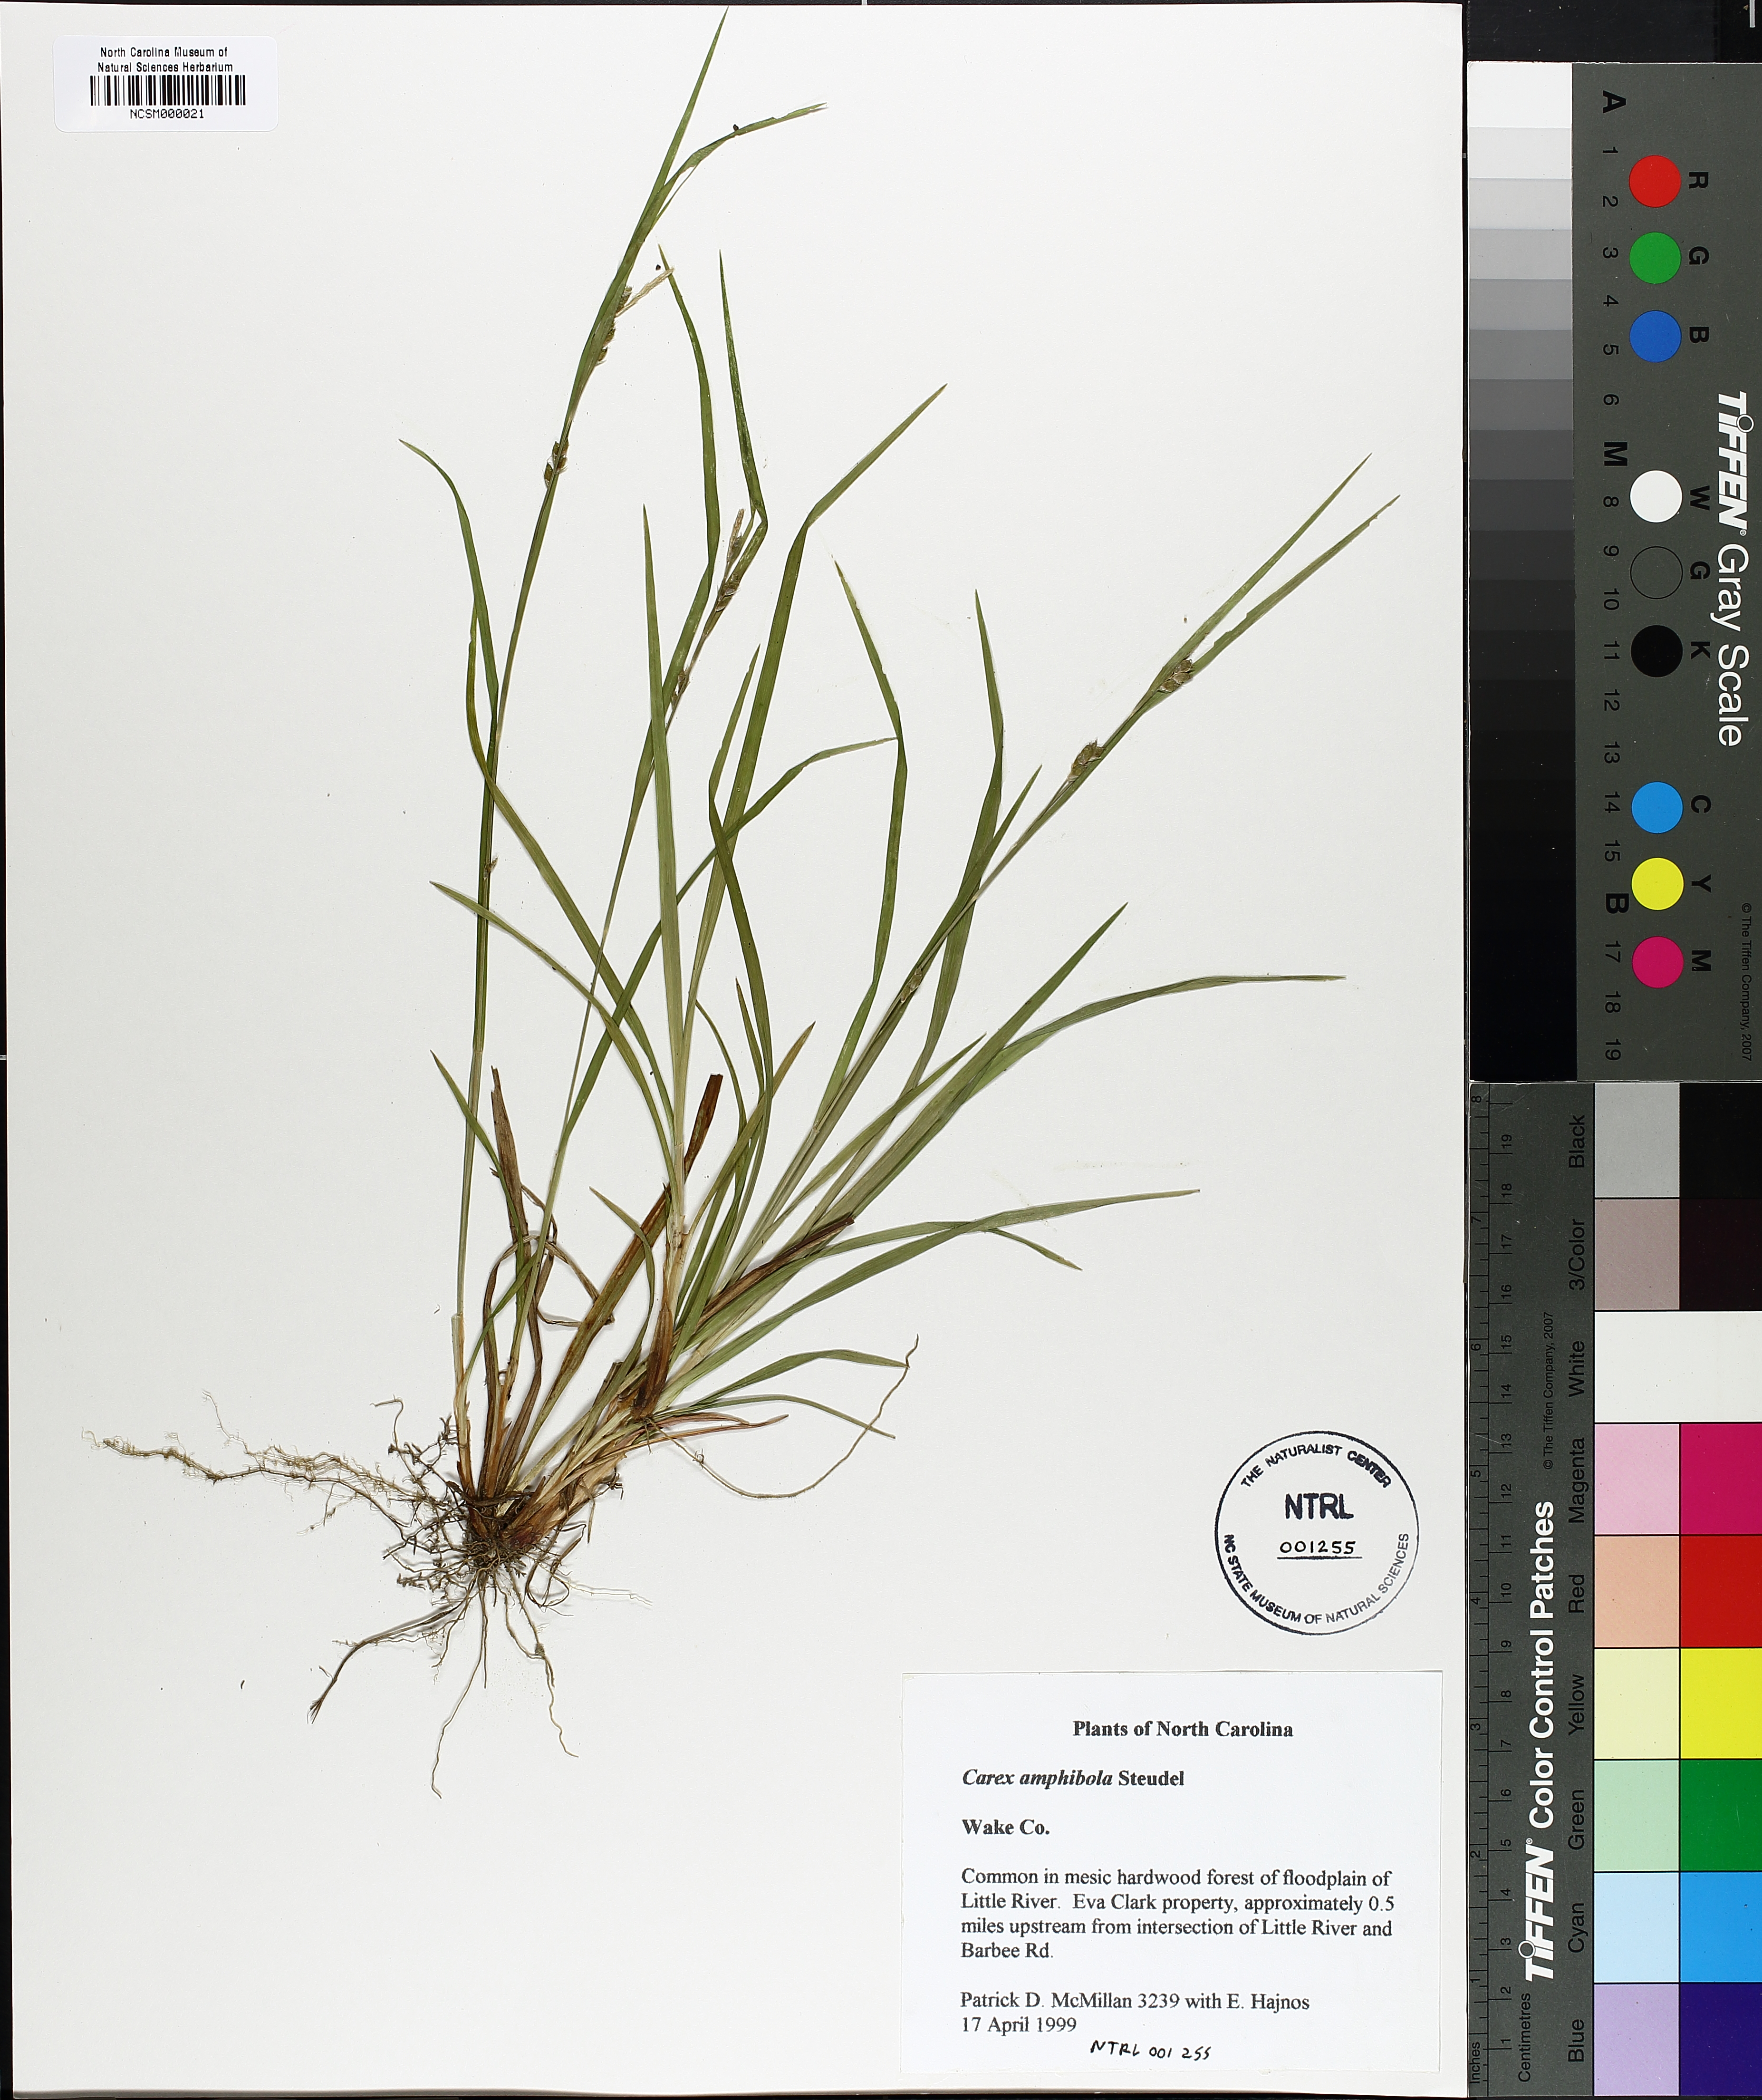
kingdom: Plantae
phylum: Tracheophyta
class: Liliopsida
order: Poales
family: Cyperaceae
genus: Carex
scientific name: Carex amphibola
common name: Amphibious sedge
